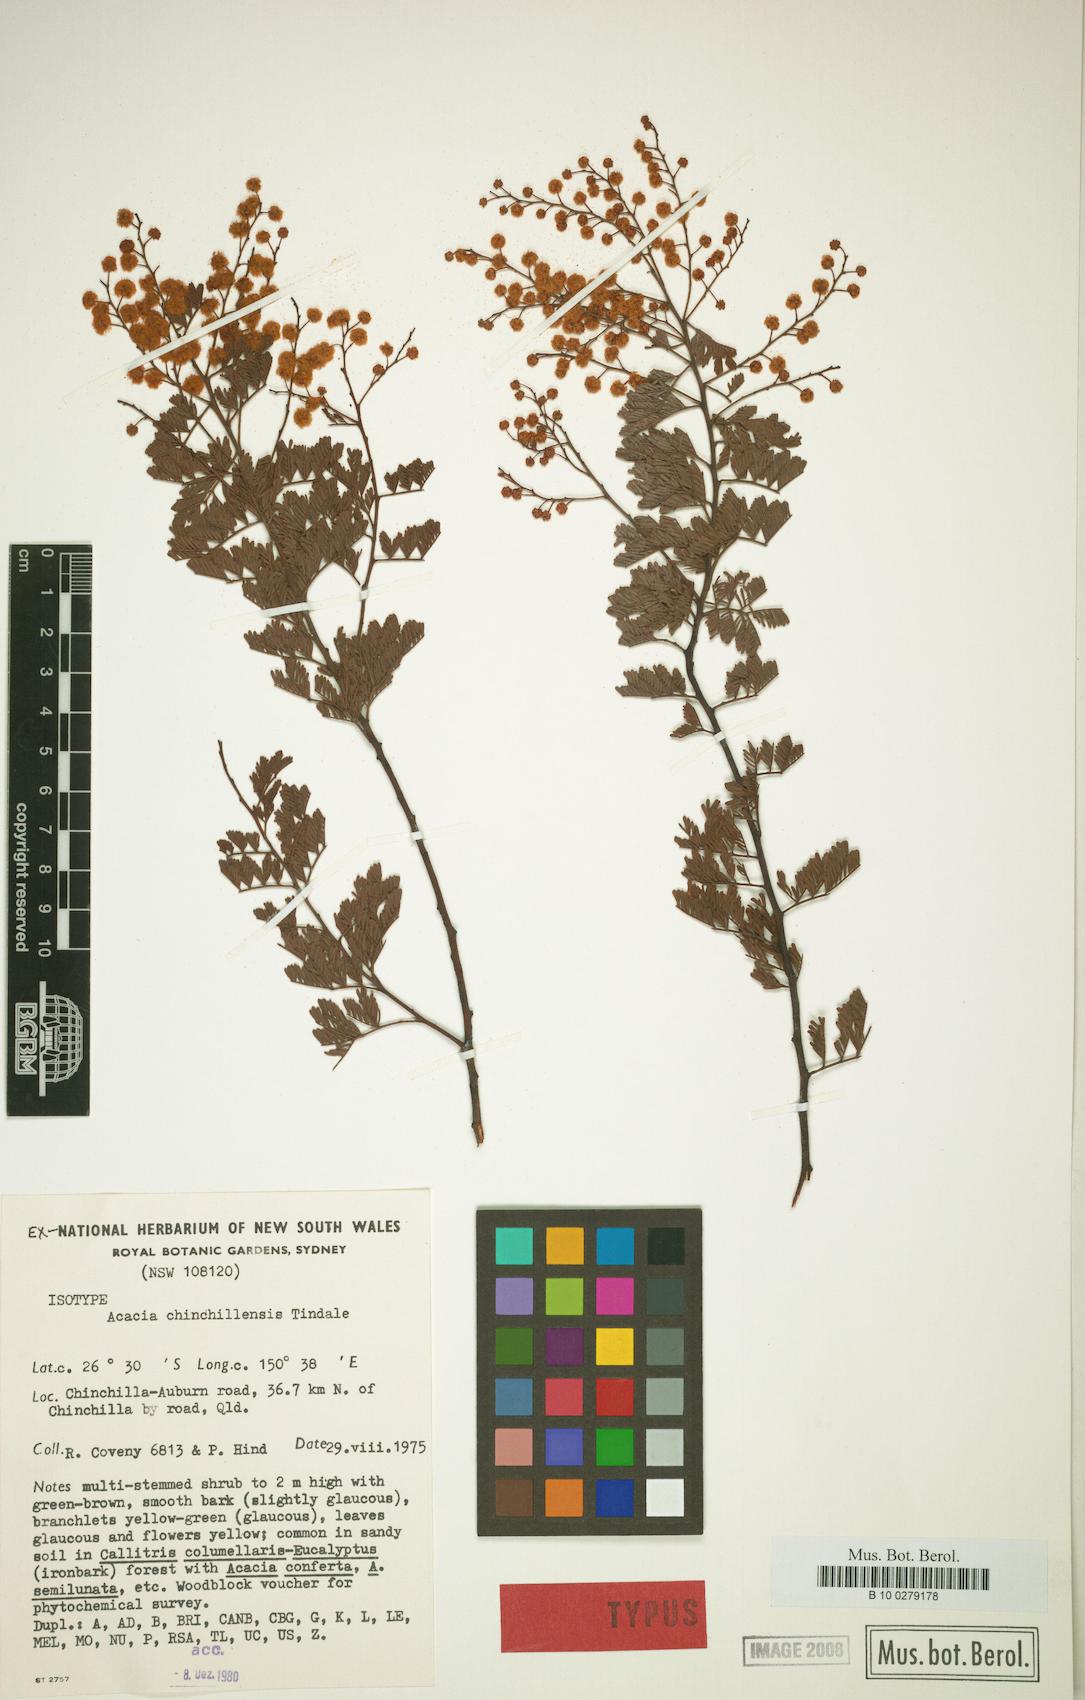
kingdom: Plantae
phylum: Tracheophyta
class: Magnoliopsida
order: Fabales
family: Fabaceae
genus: Acacia
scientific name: Acacia chinchillensis
